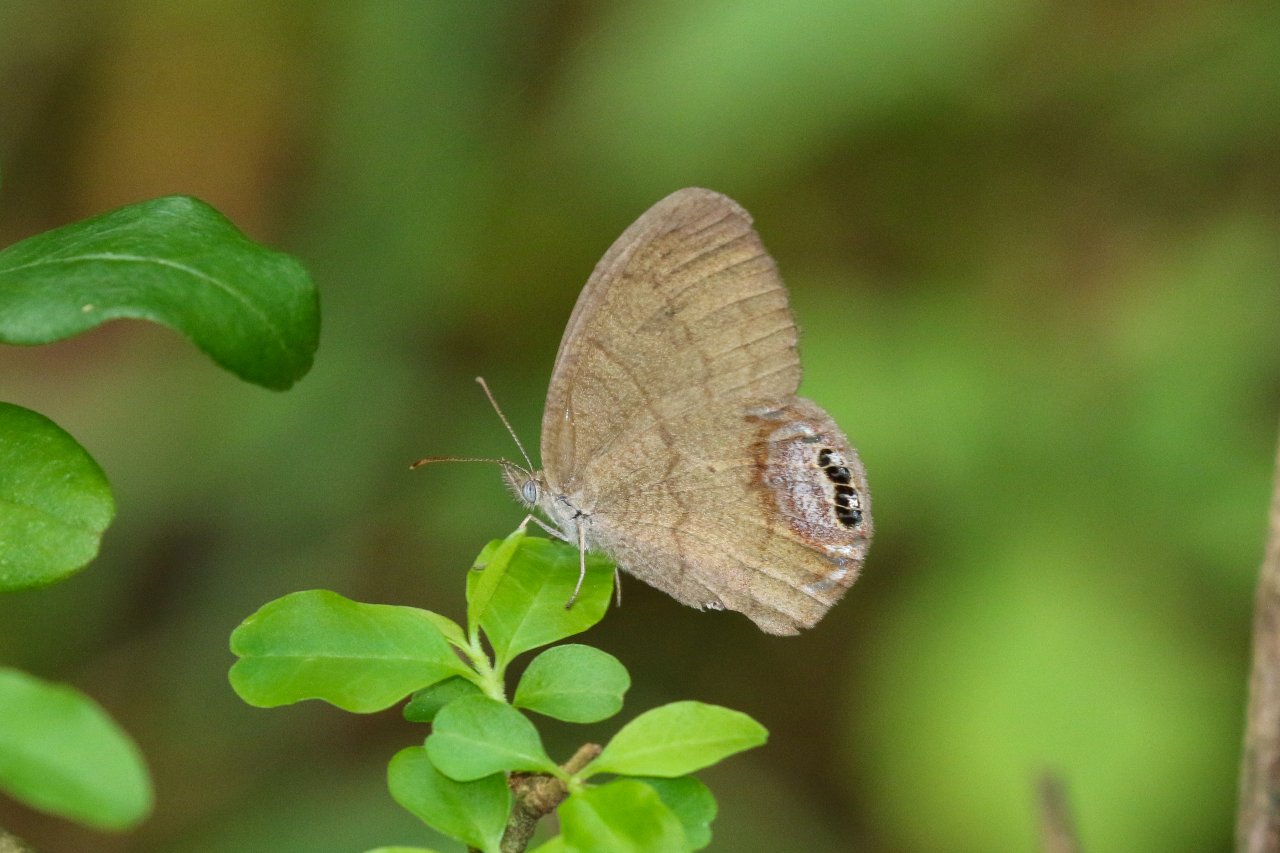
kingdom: Animalia
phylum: Arthropoda
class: Insecta
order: Lepidoptera
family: Nymphalidae
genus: Euptychia
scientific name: Euptychia cornelius
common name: Gemmed Satyr
